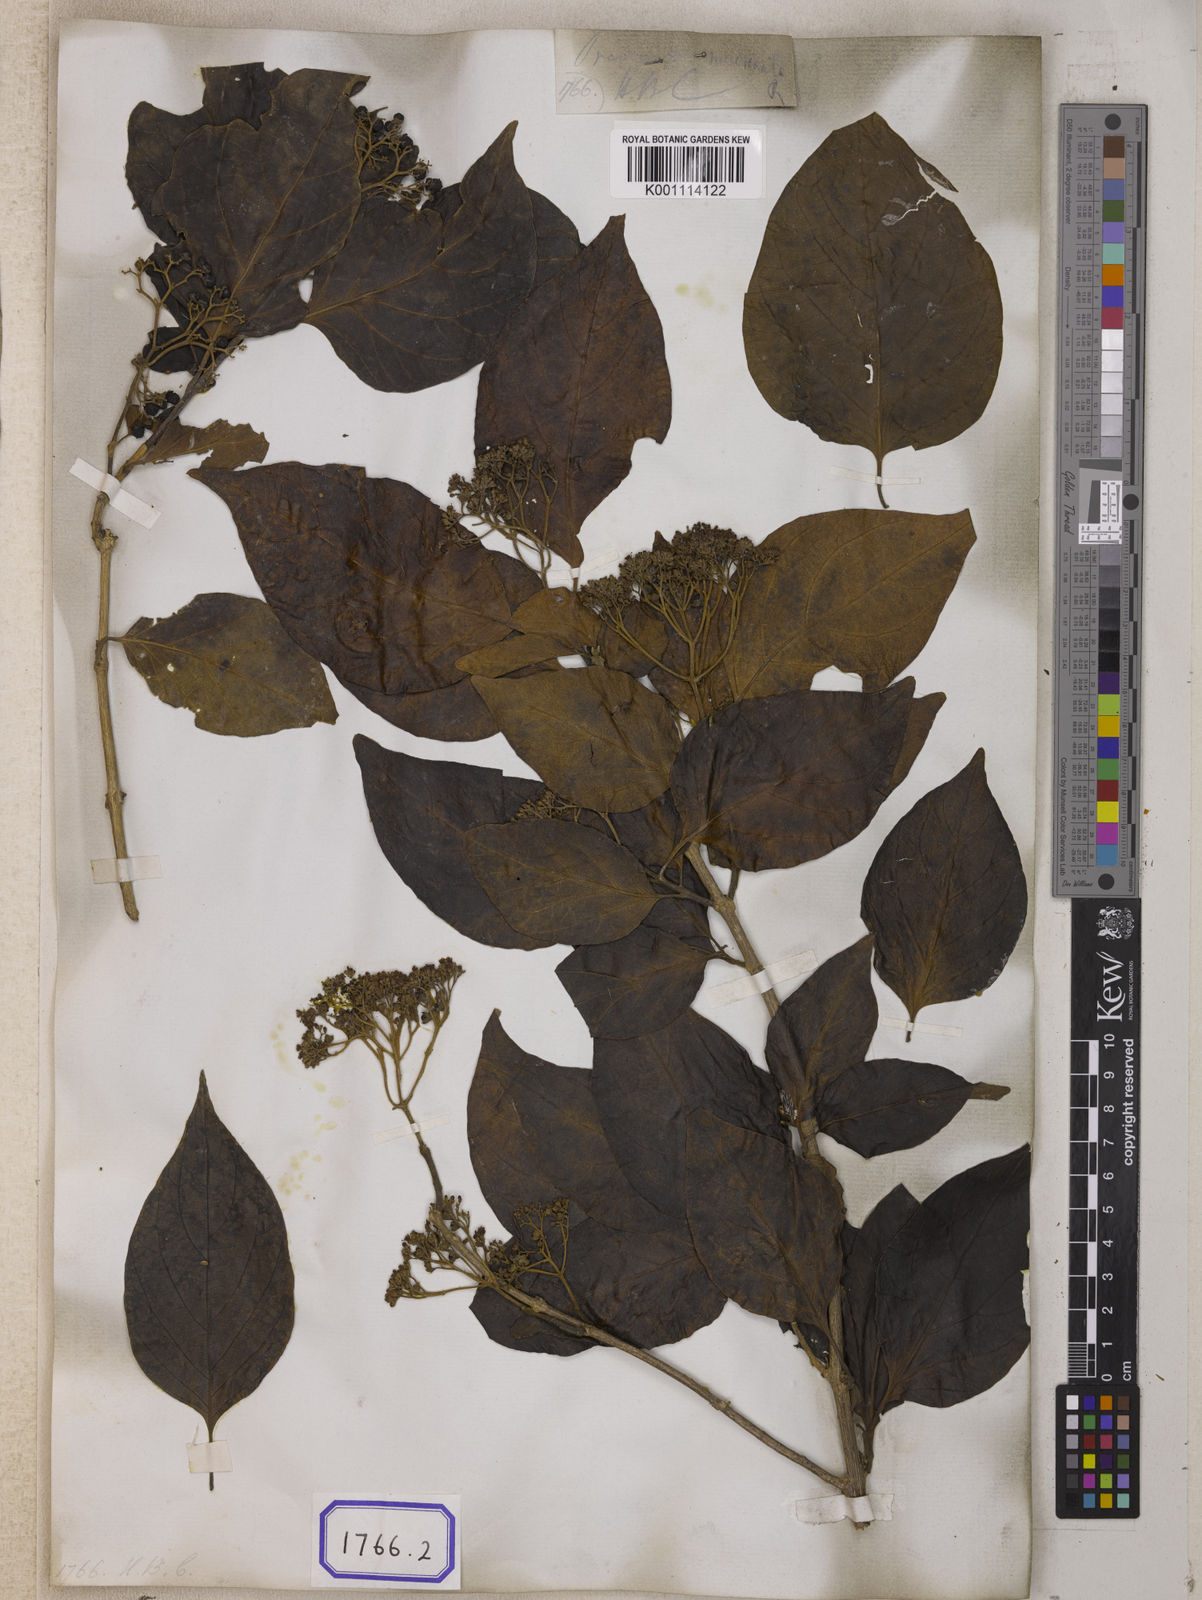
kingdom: Plantae
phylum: Tracheophyta
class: Magnoliopsida
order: Lamiales
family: Lamiaceae
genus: Premna
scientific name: Premna mollissima
